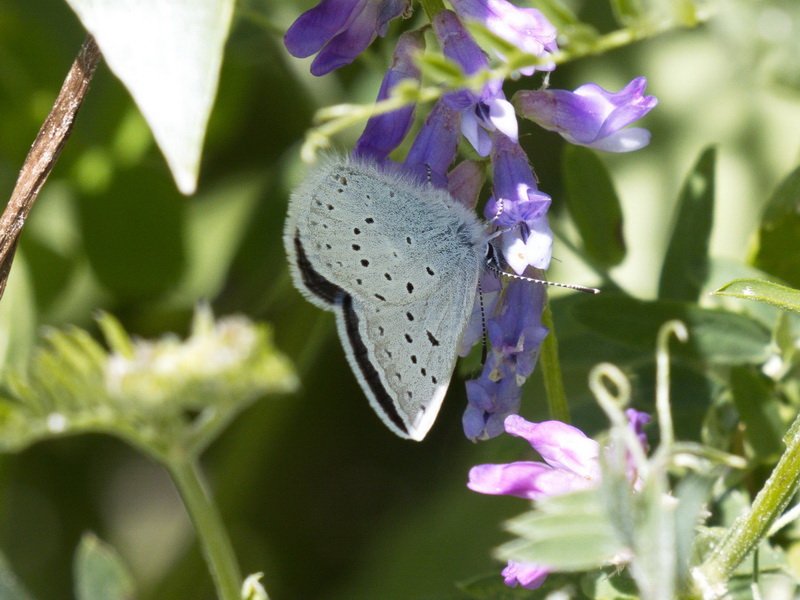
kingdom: Animalia
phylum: Arthropoda
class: Insecta
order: Lepidoptera
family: Lycaenidae
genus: Plebejus
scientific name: Plebejus saepiolus
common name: Greenish Blue
